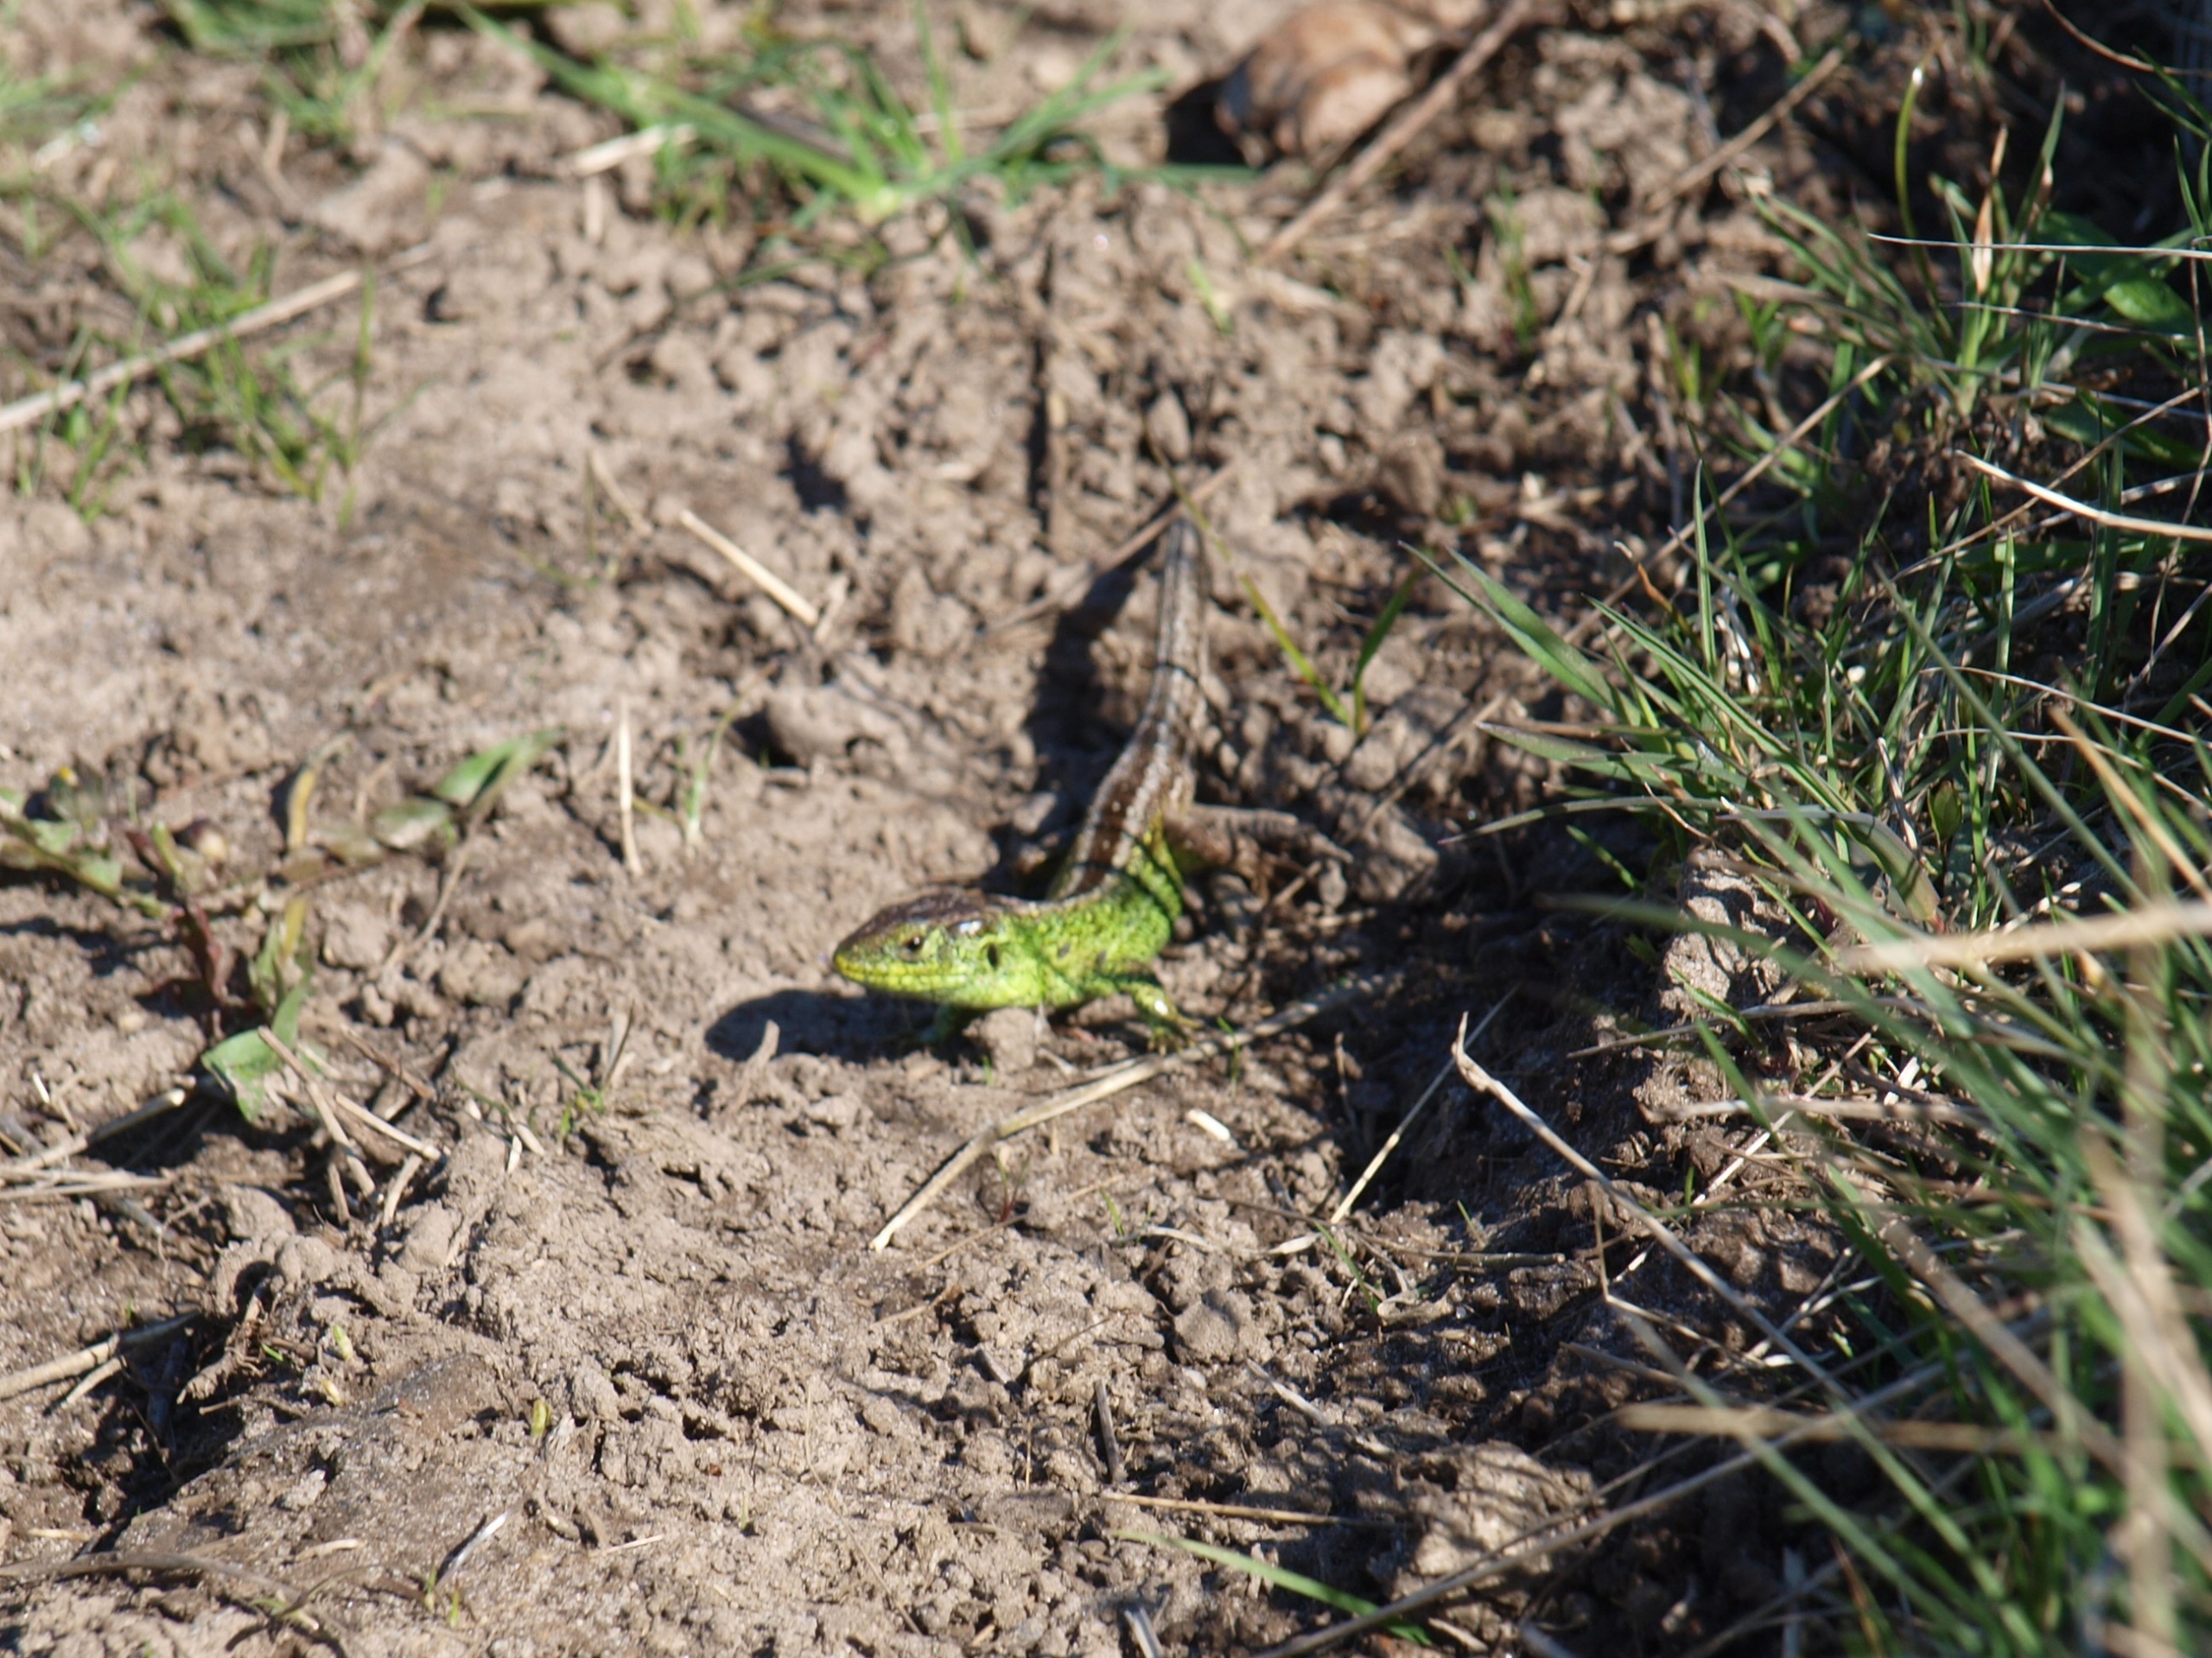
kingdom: Animalia
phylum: Chordata
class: Squamata
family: Lacertidae
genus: Lacerta
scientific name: Lacerta agilis
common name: Markfirben
